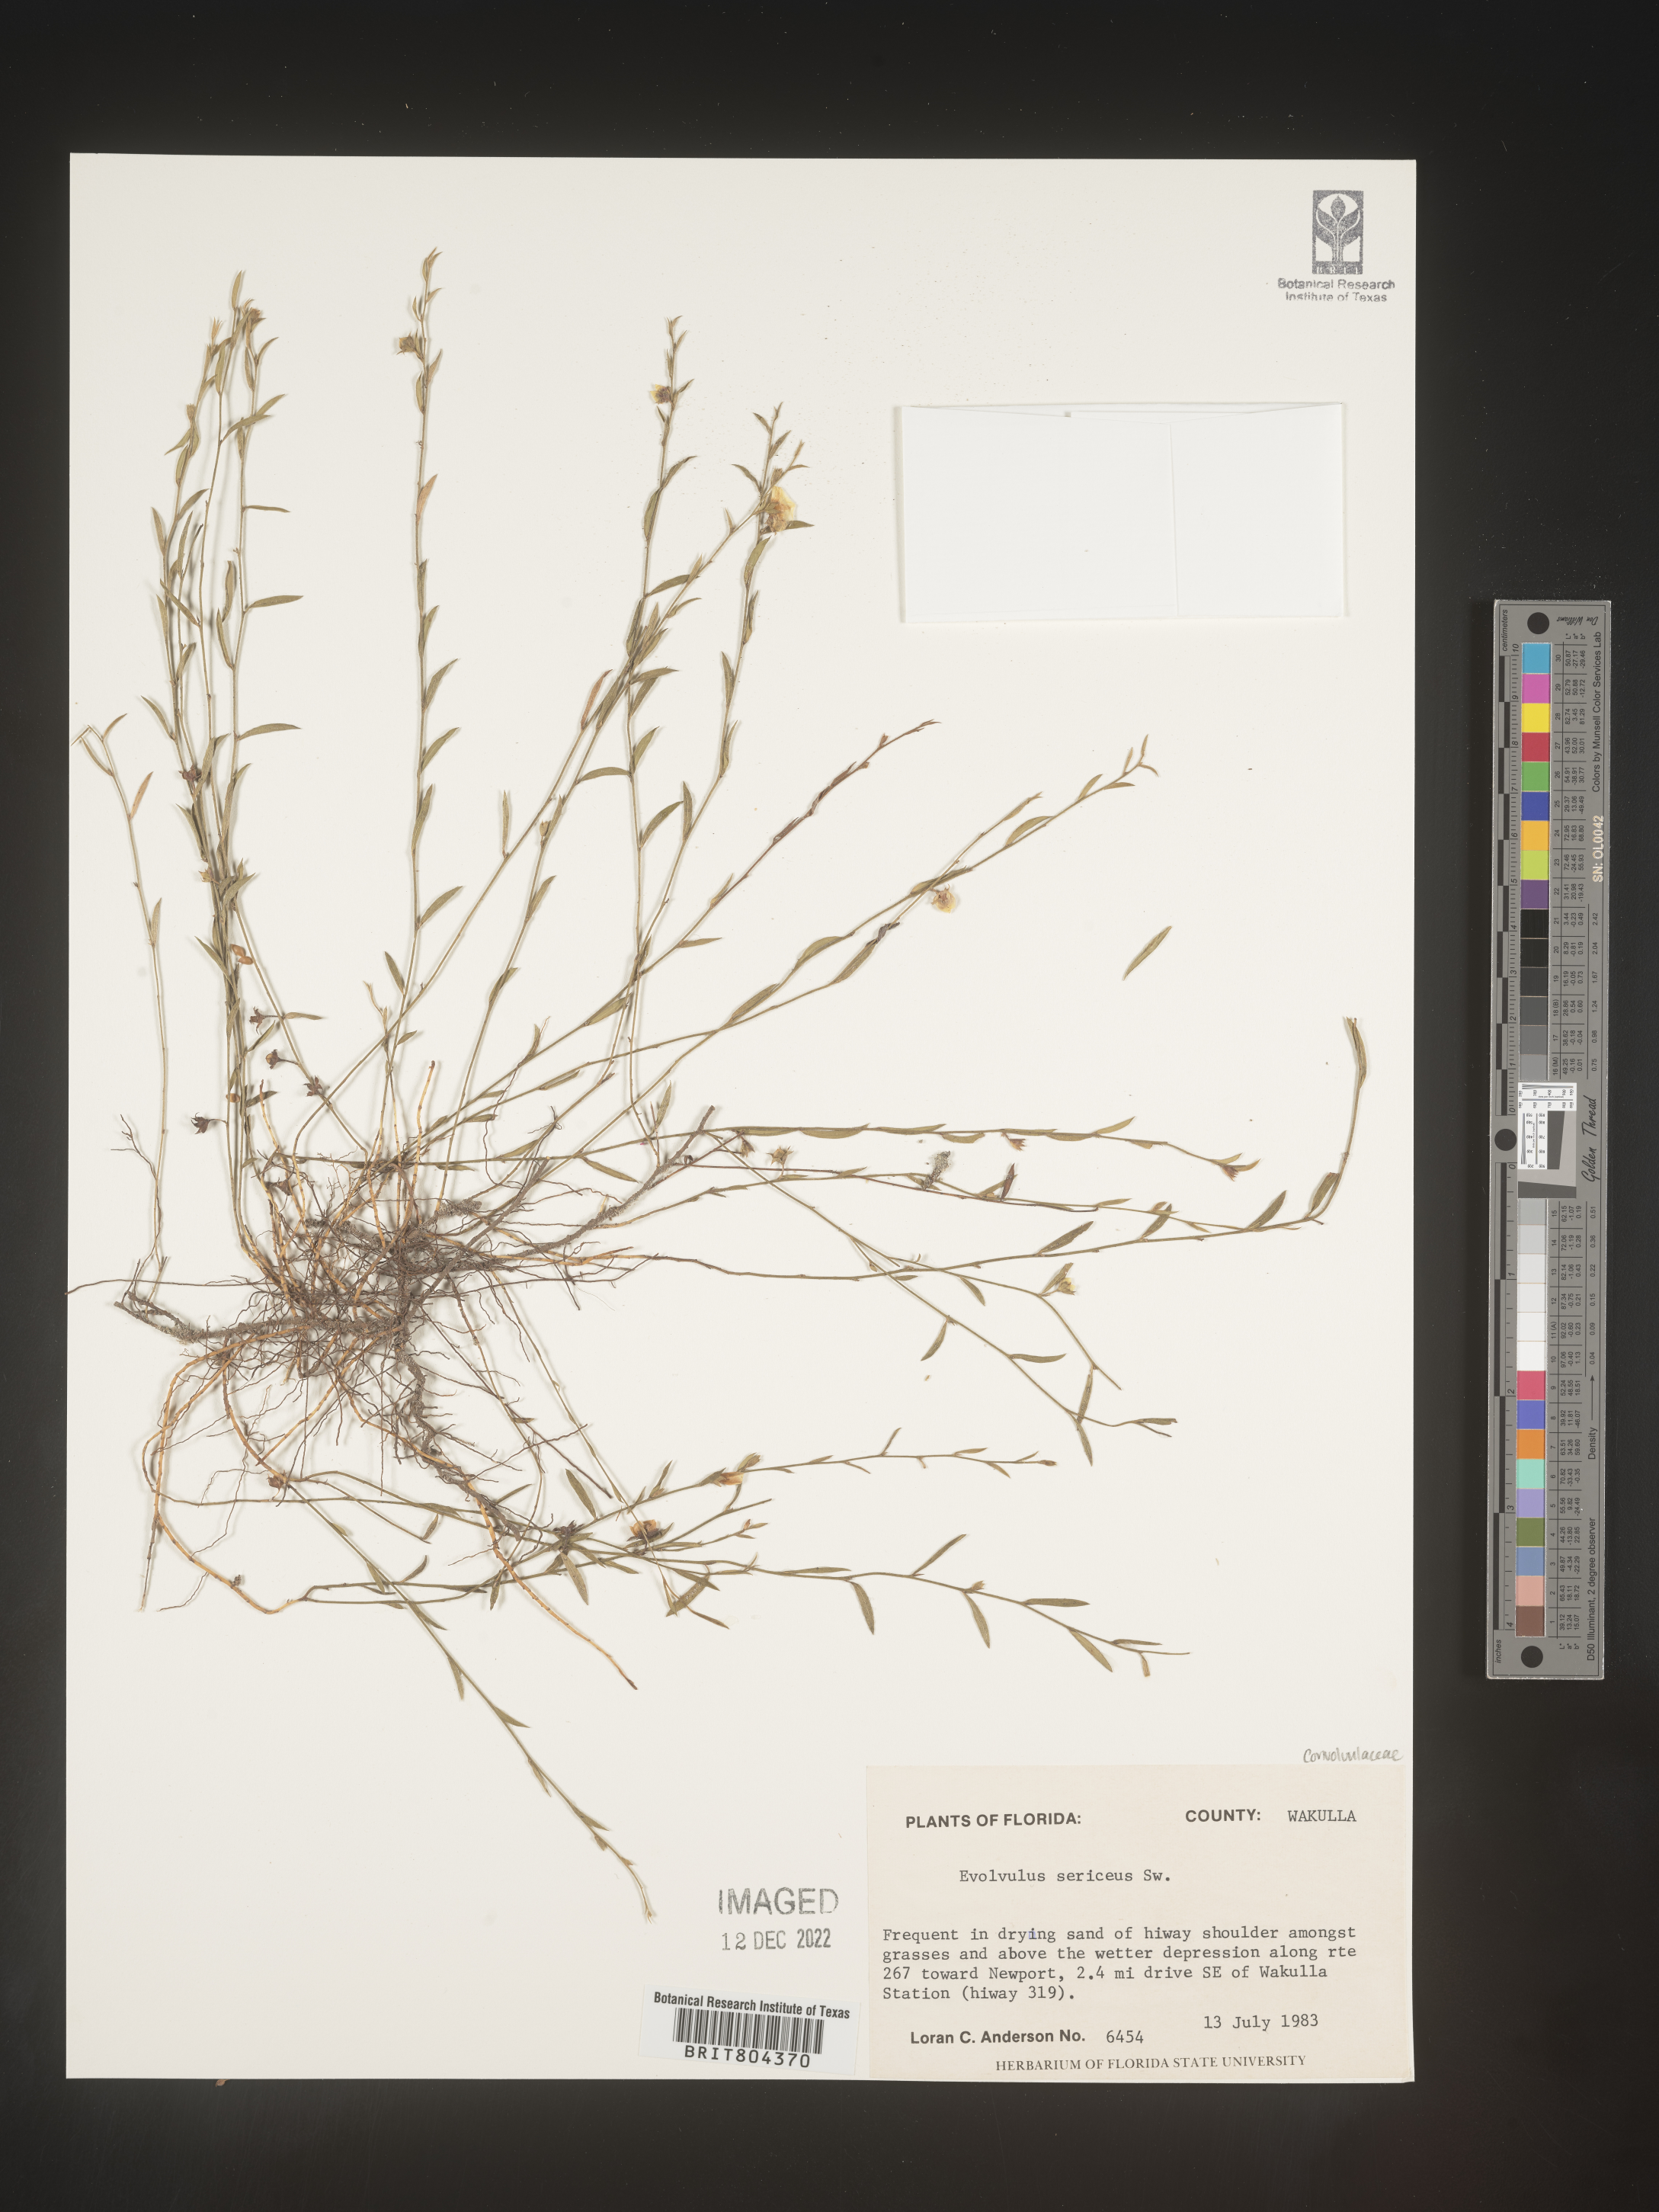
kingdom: Plantae
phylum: Tracheophyta
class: Magnoliopsida
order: Solanales
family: Convolvulaceae
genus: Evolvulus
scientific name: Evolvulus
